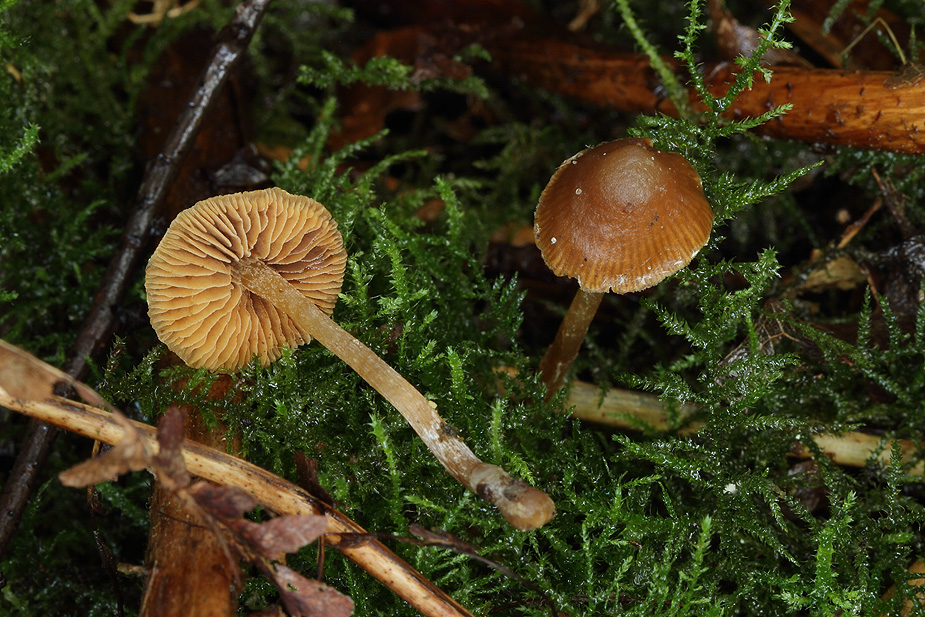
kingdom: Fungi
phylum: Basidiomycota
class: Agaricomycetes
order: Agaricales
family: Hymenogastraceae
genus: Galerina
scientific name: Galerina cinctula
